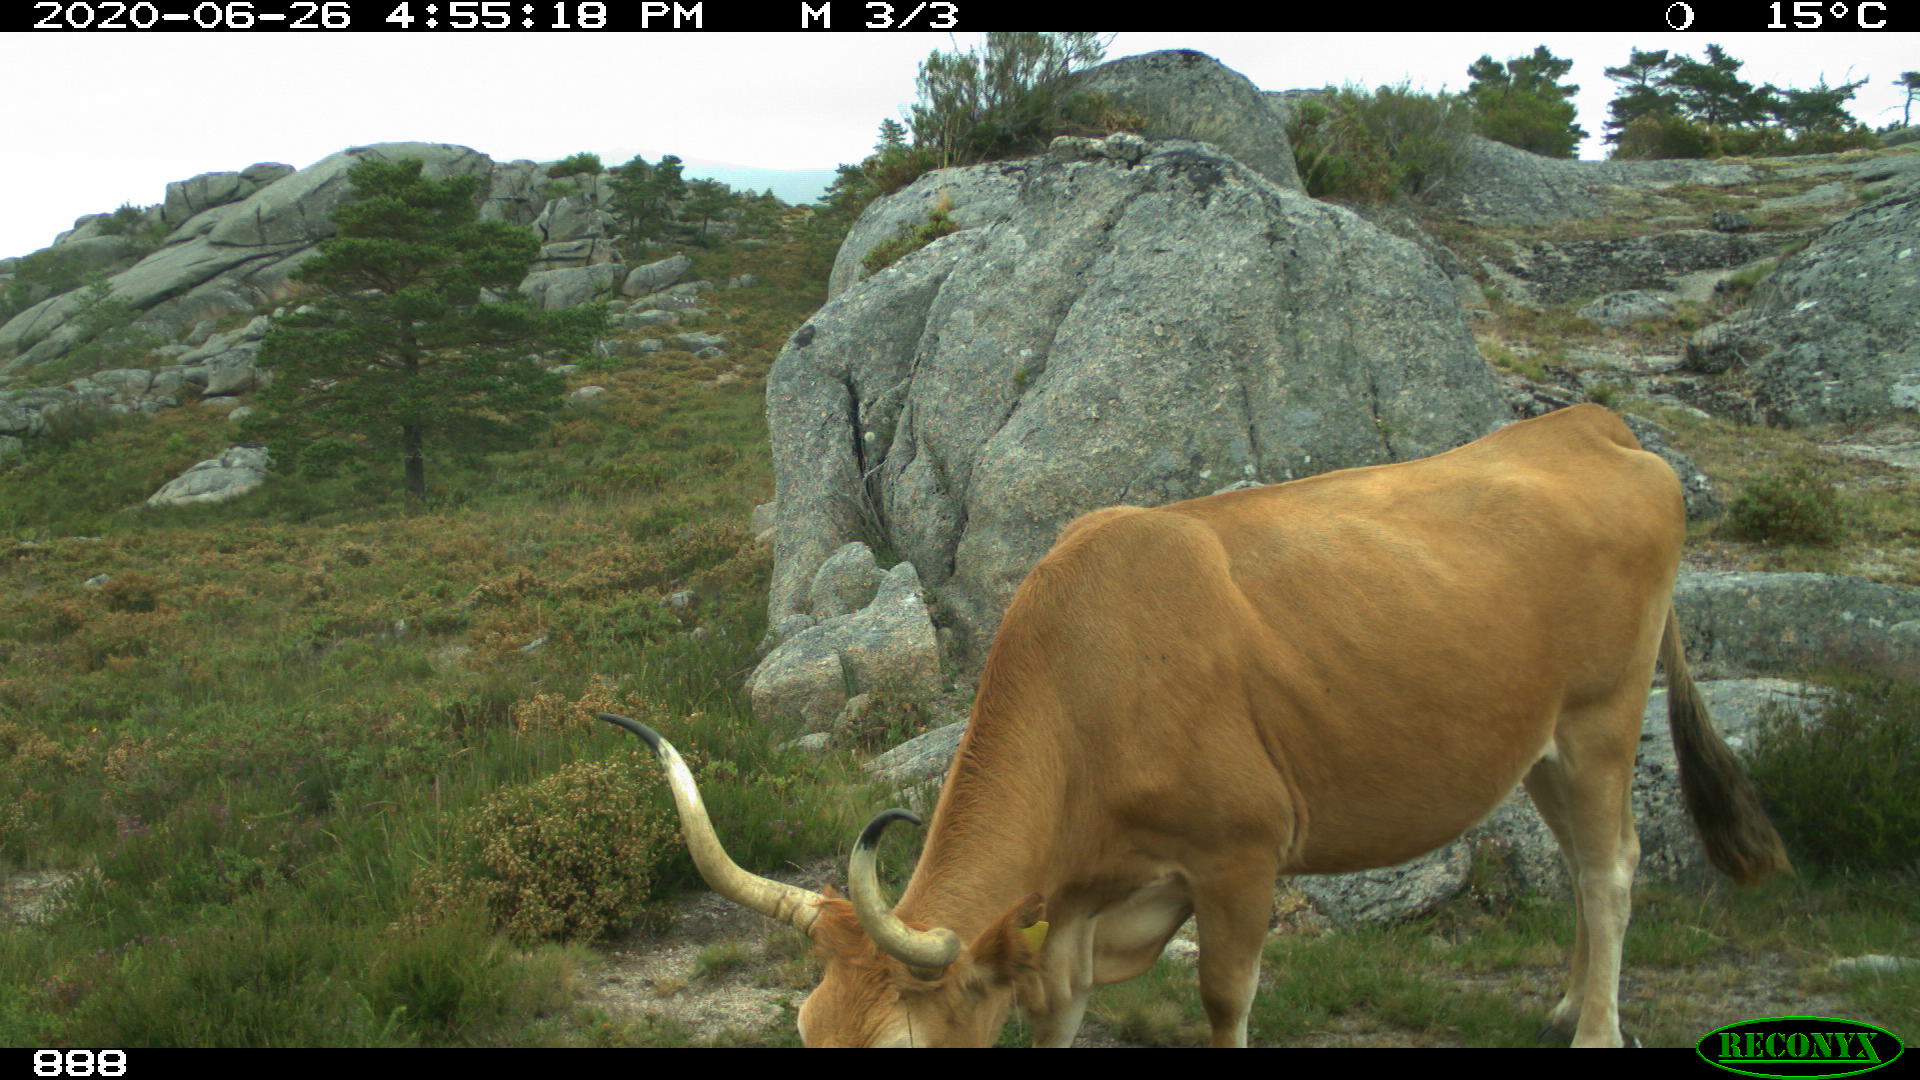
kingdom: Animalia
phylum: Chordata
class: Mammalia
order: Artiodactyla
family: Bovidae
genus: Bos
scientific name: Bos taurus
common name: Domesticated cattle
